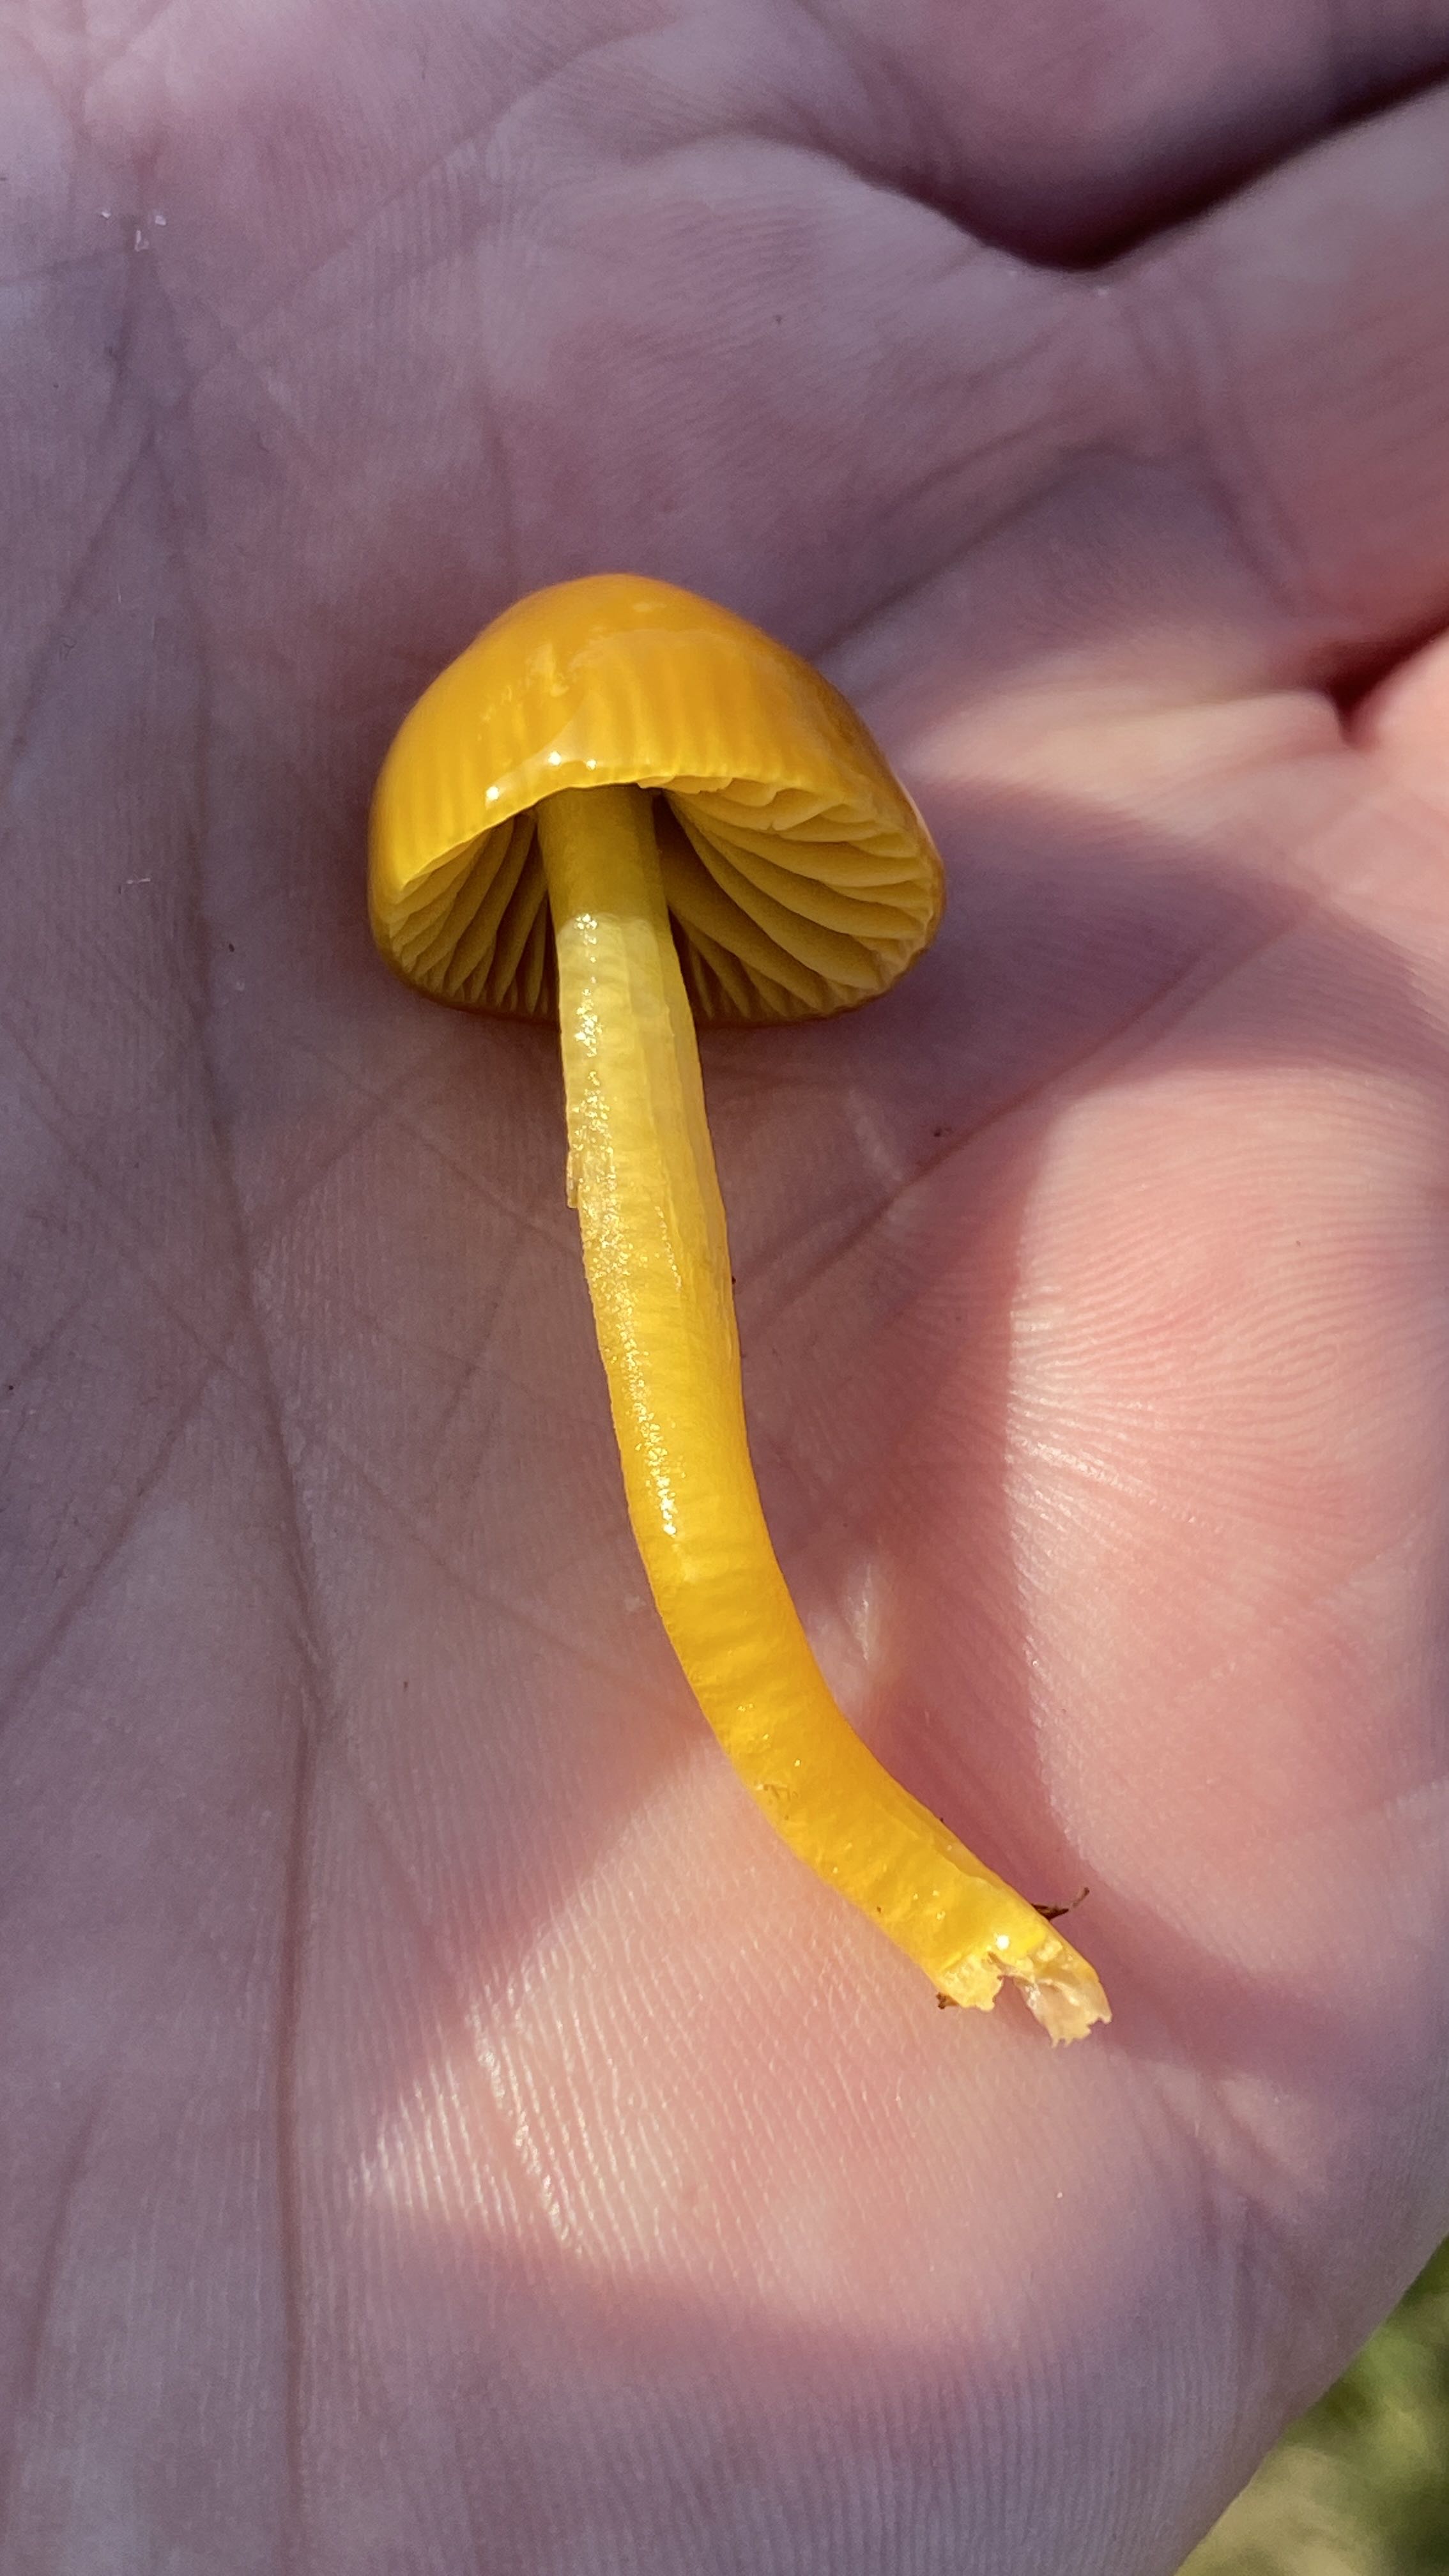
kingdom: Fungi
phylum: Basidiomycota
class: Agaricomycetes
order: Agaricales
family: Hygrophoraceae
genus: Gliophorus
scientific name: Gliophorus psittacinus
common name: papegøje-vokshat
